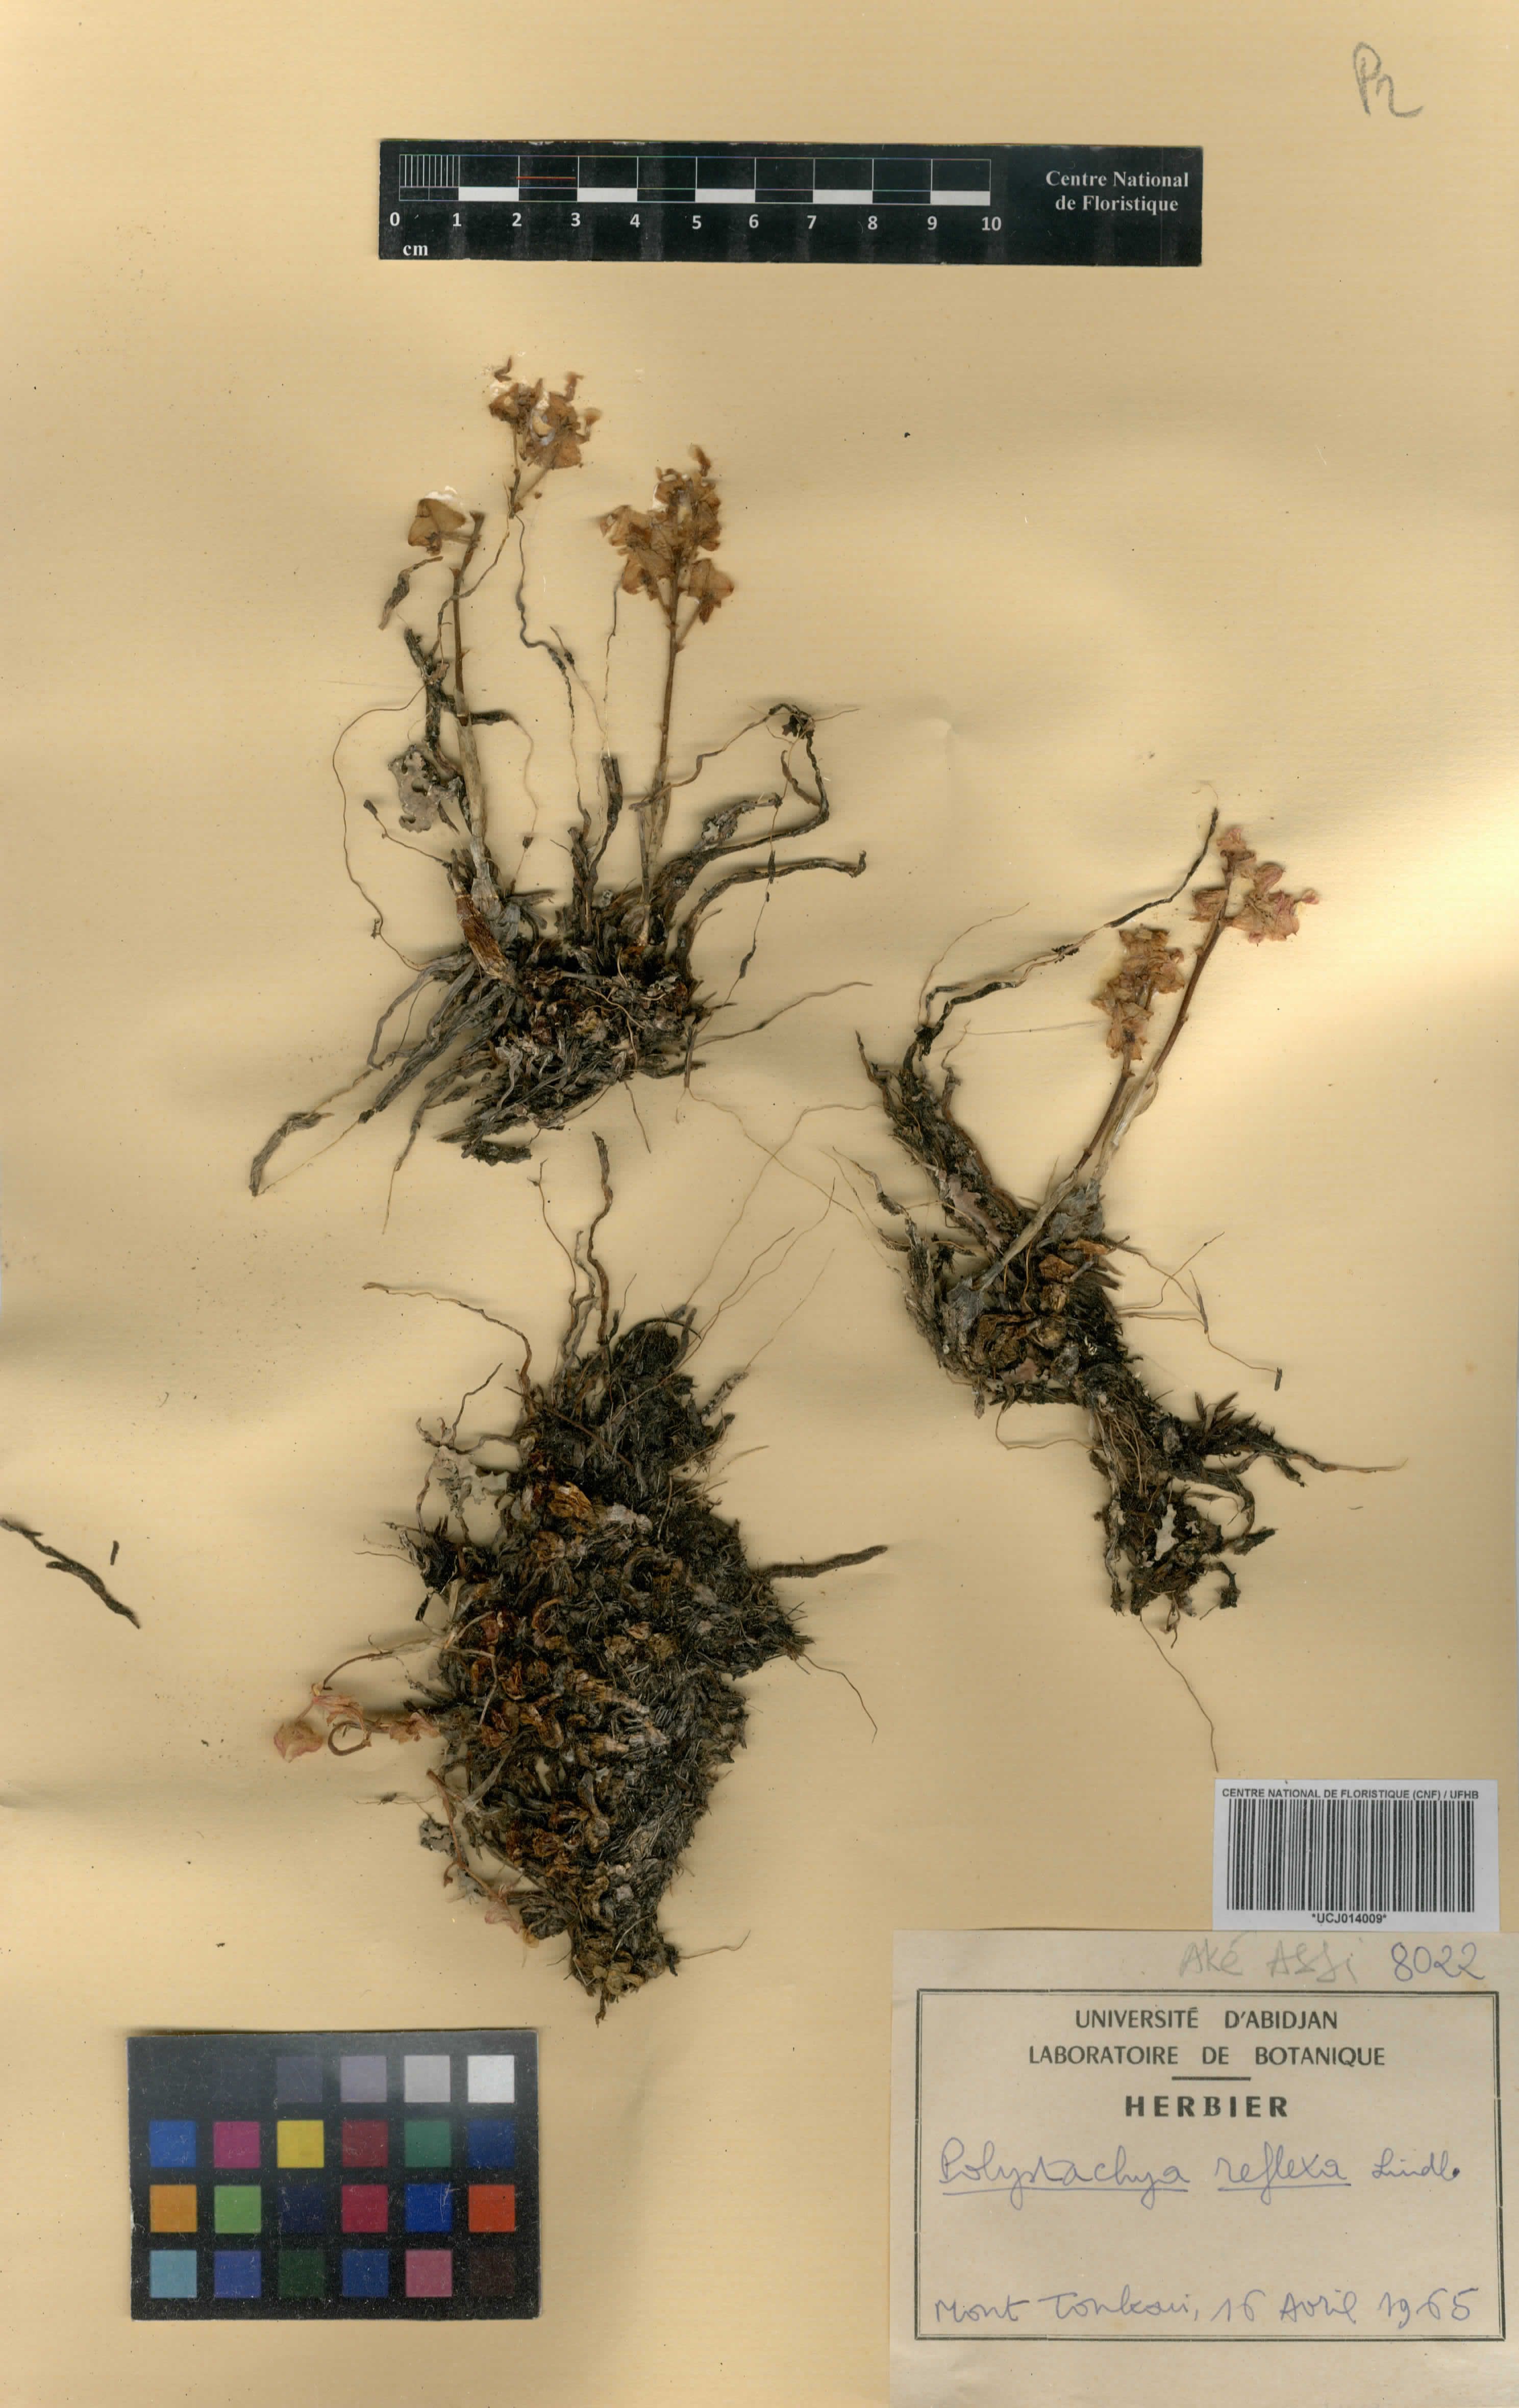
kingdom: Plantae
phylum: Tracheophyta
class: Liliopsida
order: Asparagales
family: Orchidaceae
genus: Polystachya
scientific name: Polystachya reflexa
